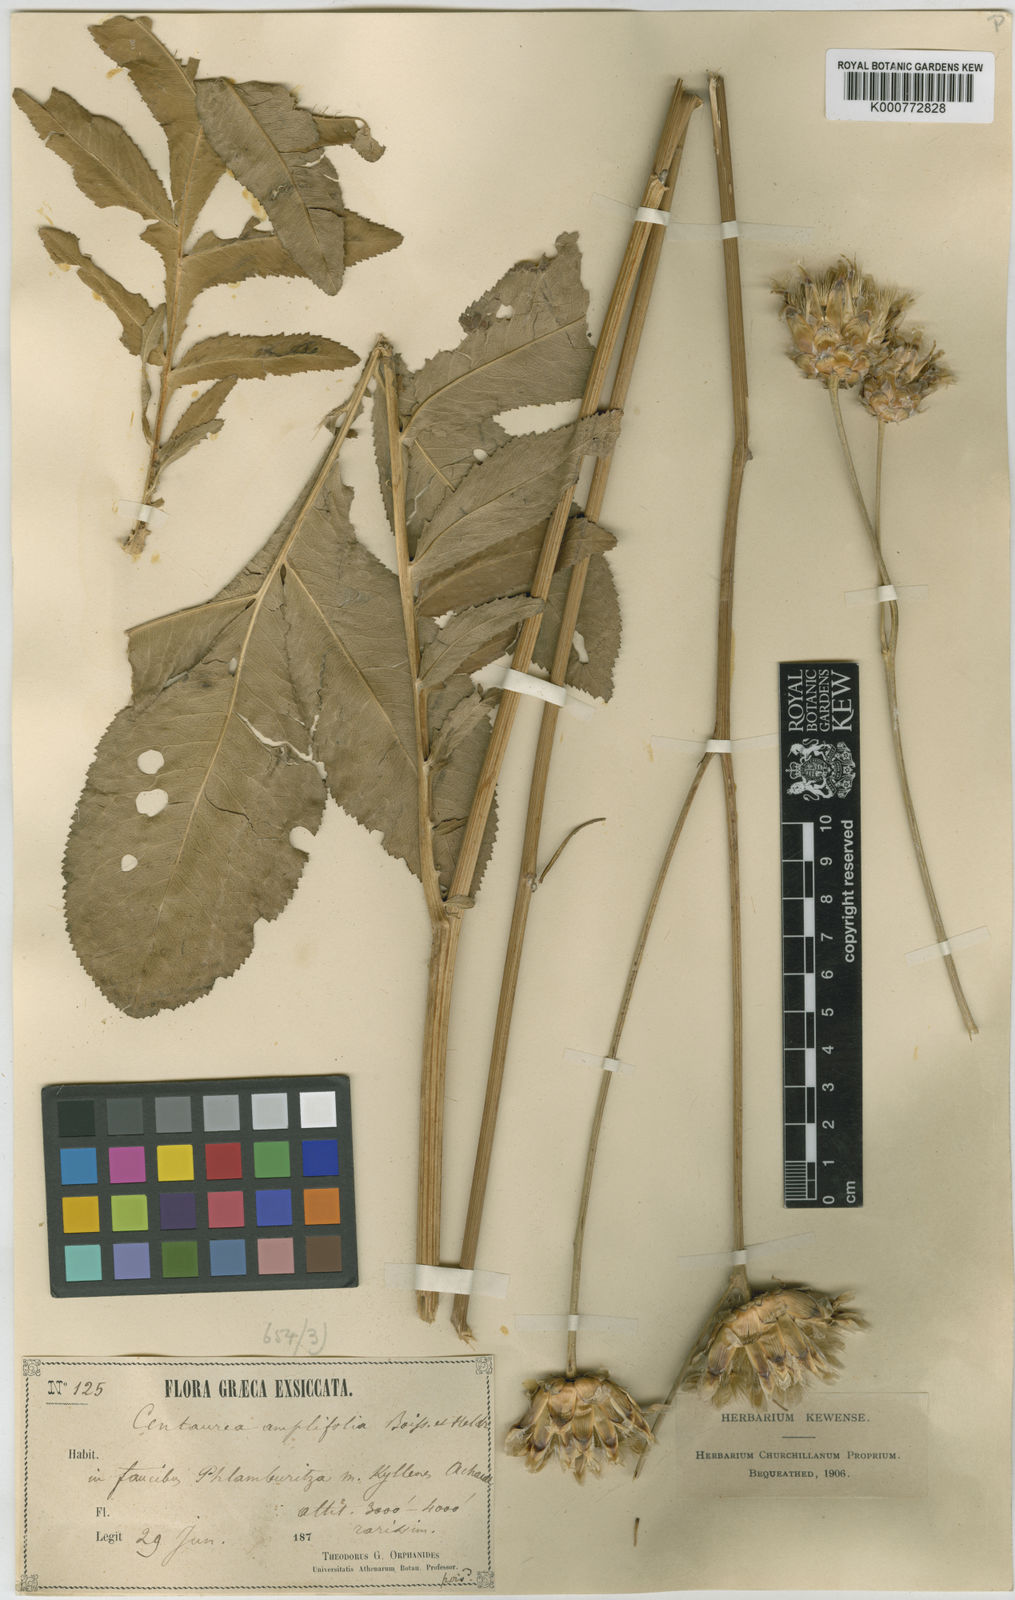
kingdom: Plantae
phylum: Tracheophyta
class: Magnoliopsida
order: Asterales
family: Asteraceae
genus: Rhaponticoides
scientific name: Rhaponticoides amplifolia
